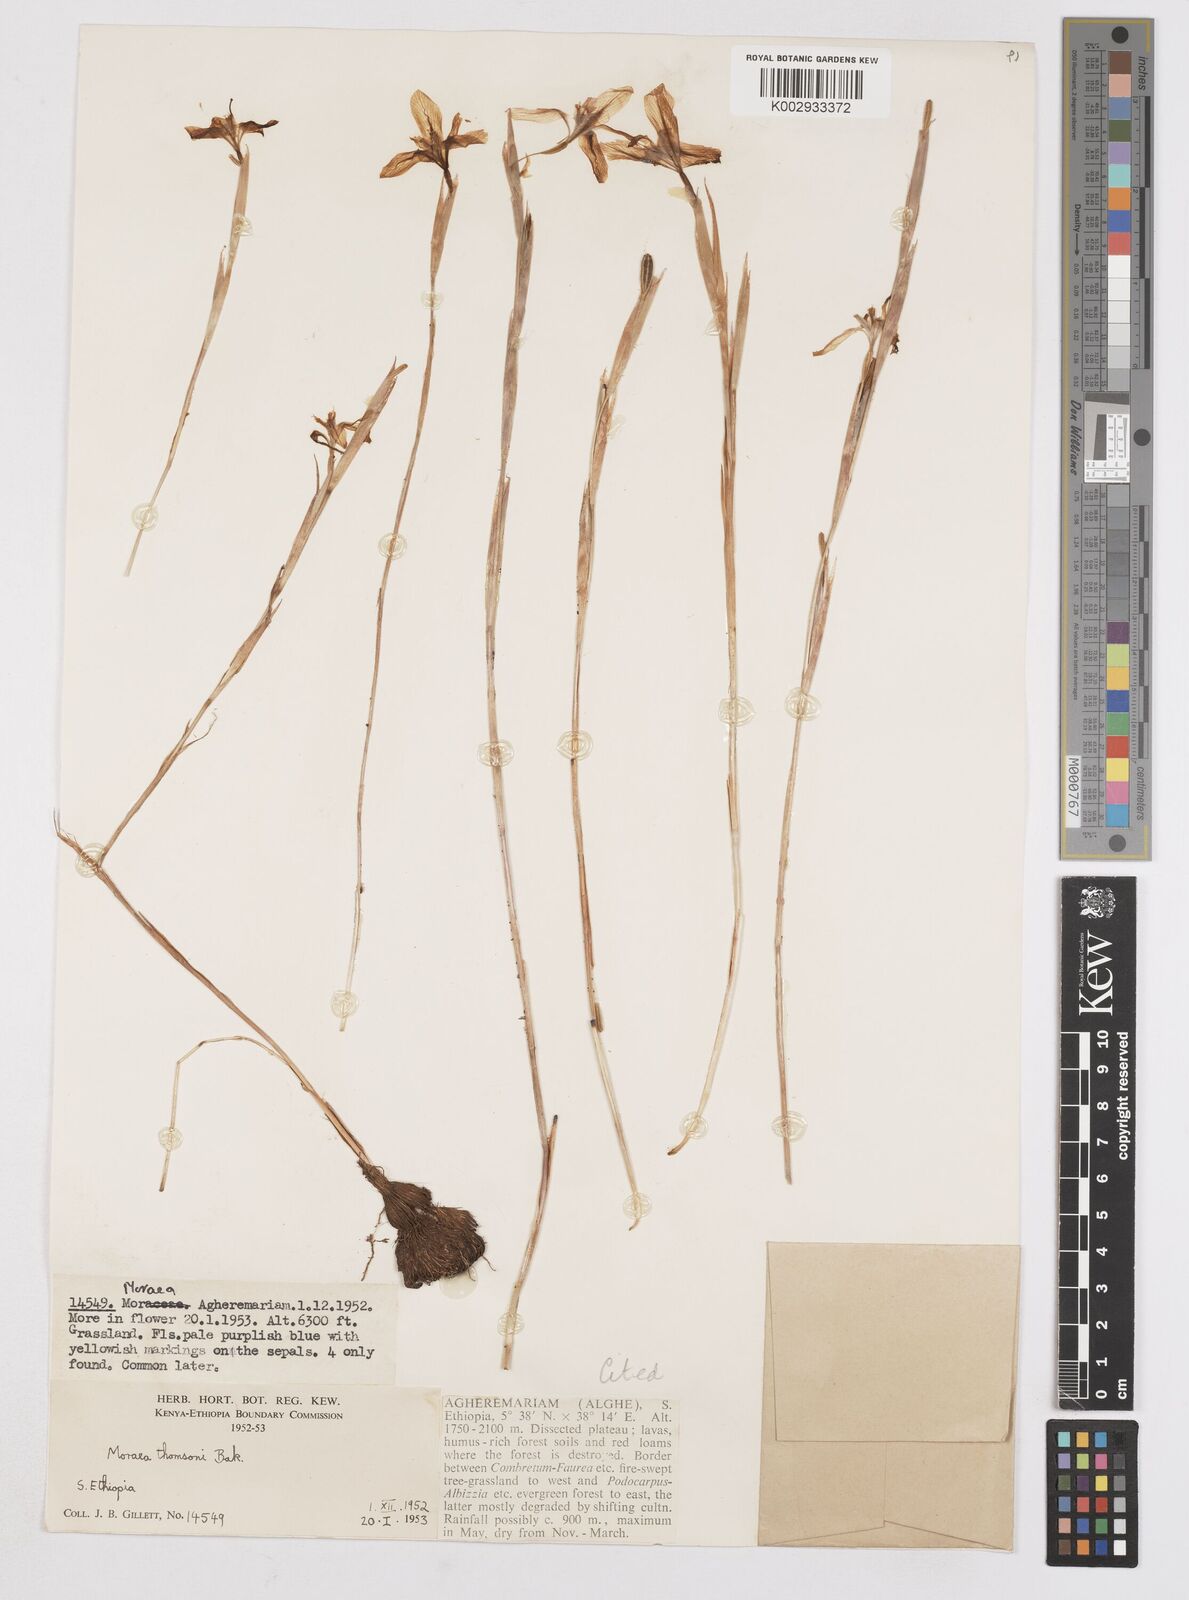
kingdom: Plantae
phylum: Tracheophyta
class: Liliopsida
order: Asparagales
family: Iridaceae
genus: Moraea
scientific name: Moraea thomsonii
